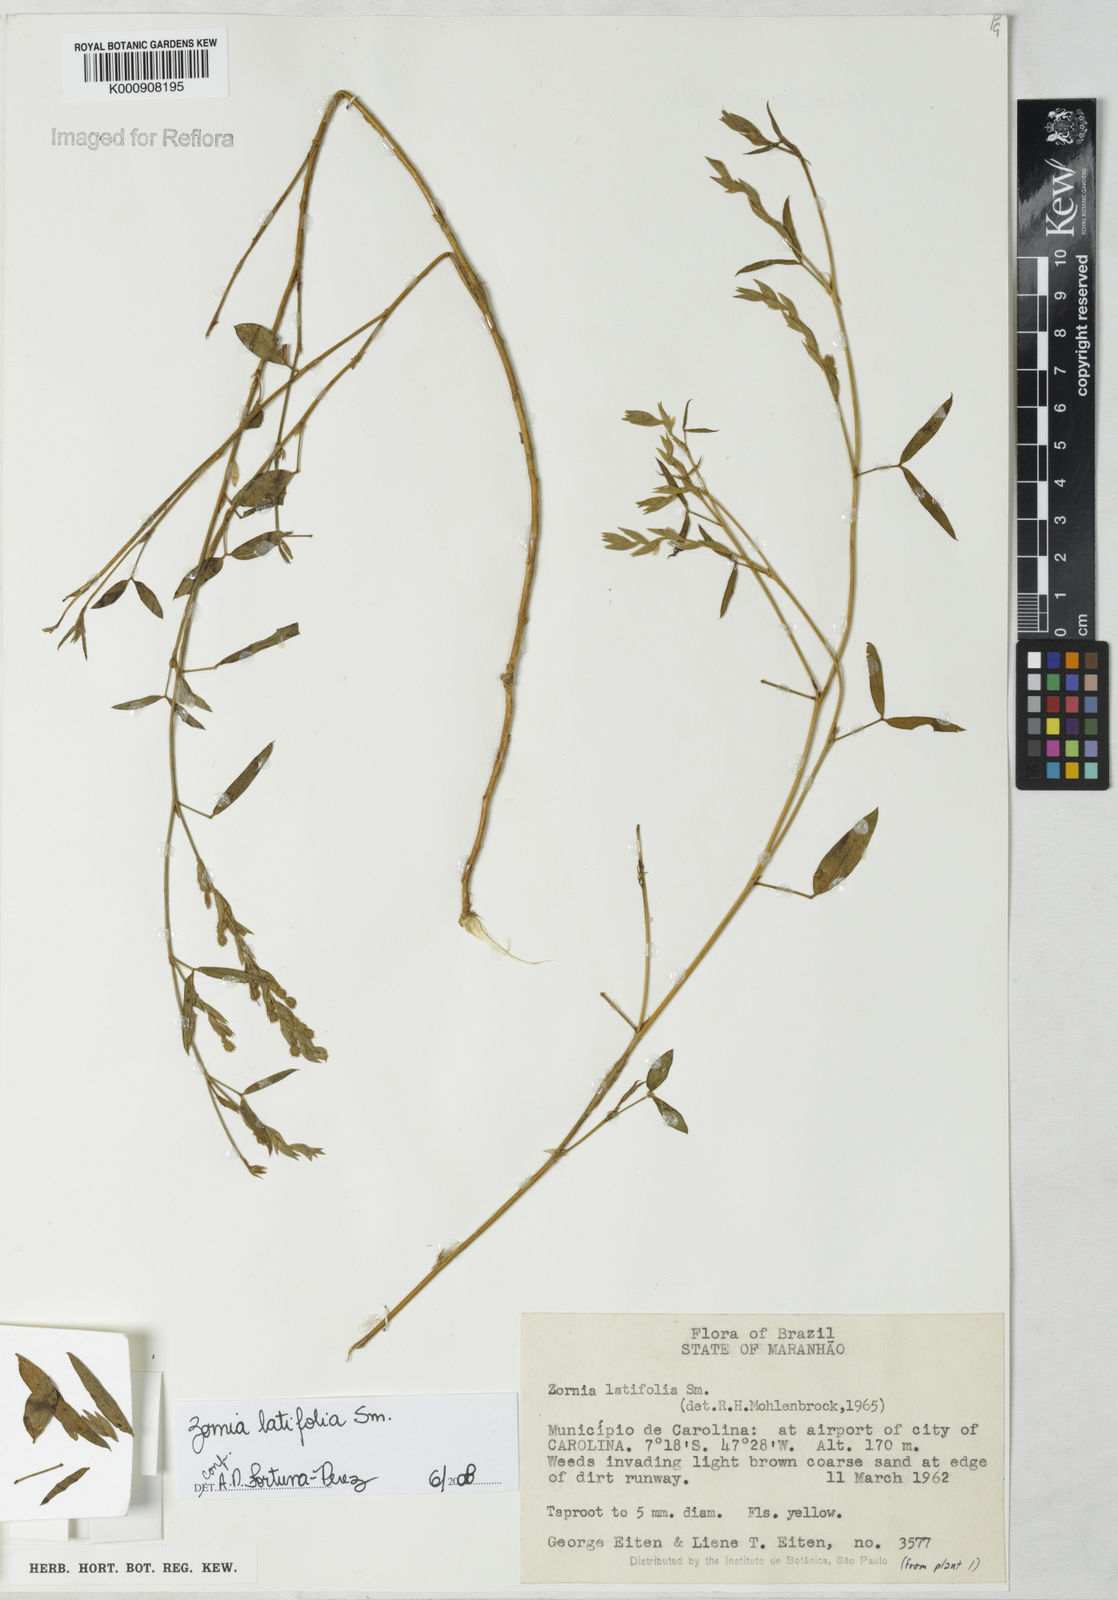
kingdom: Plantae
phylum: Tracheophyta
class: Magnoliopsida
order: Fabales
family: Fabaceae
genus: Zornia
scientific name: Zornia latifolia
